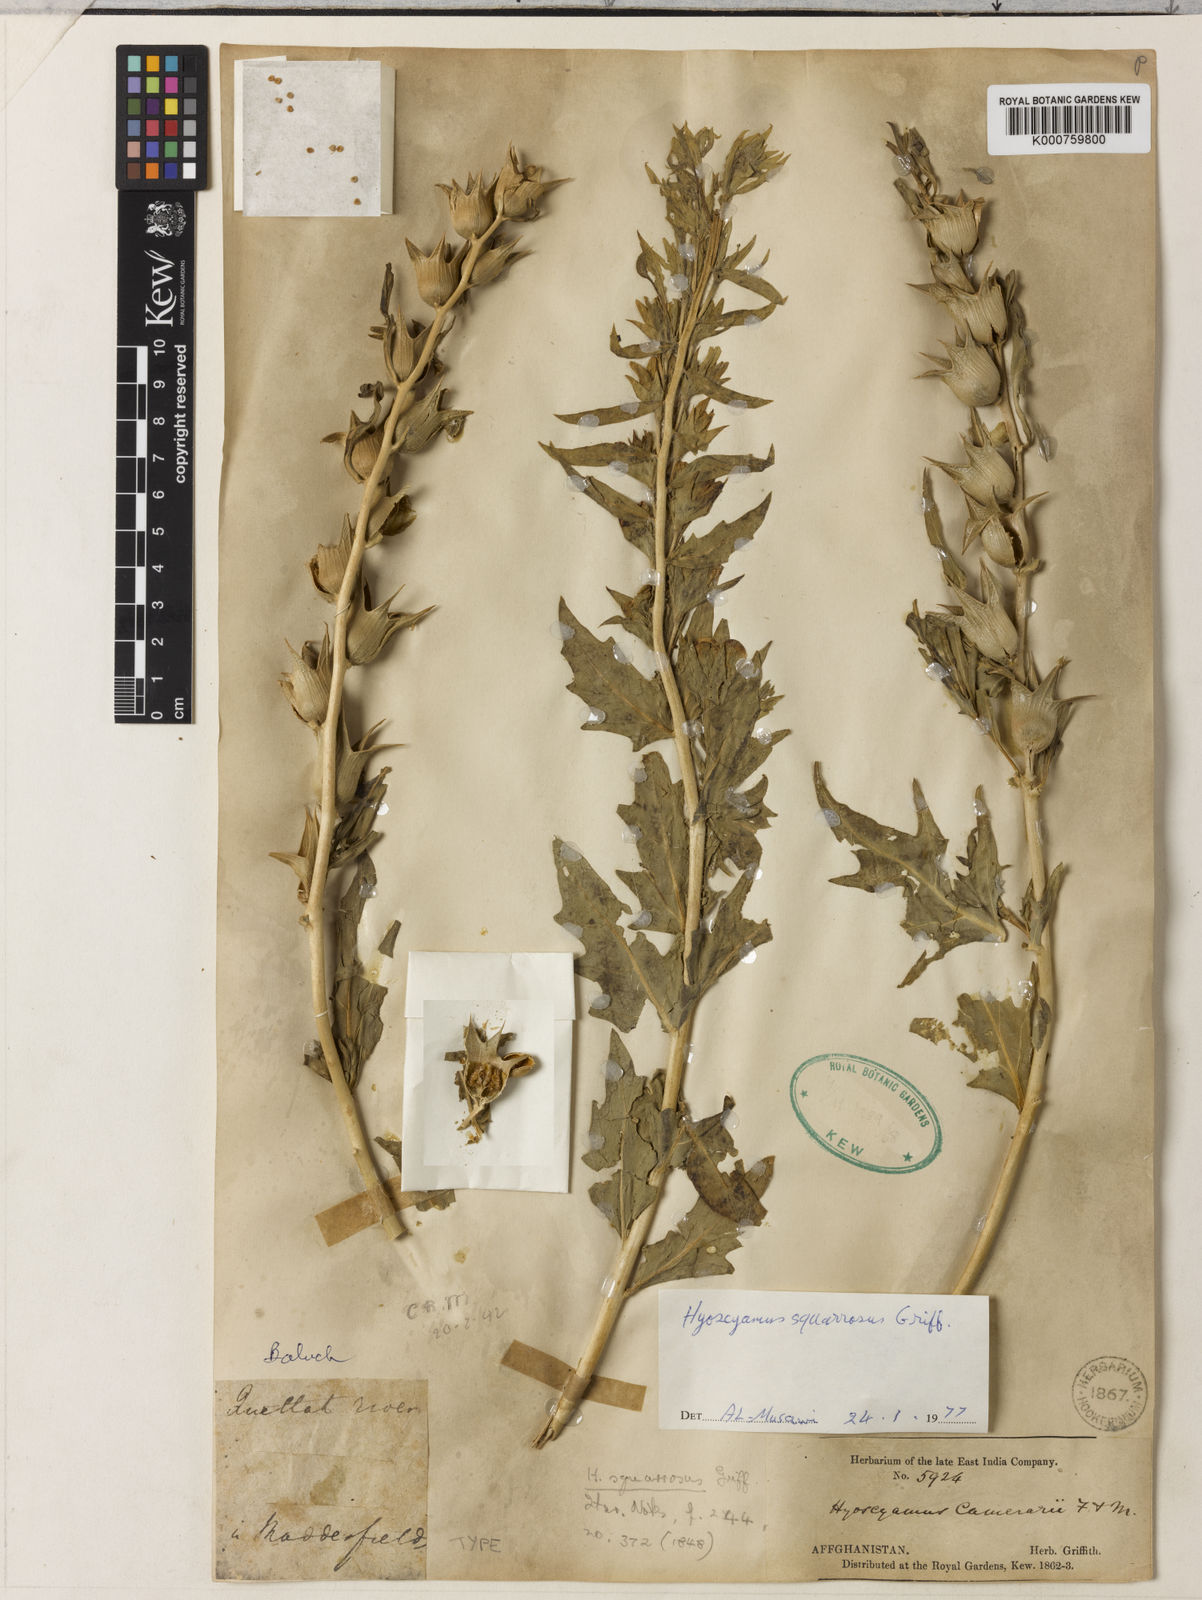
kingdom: Plantae
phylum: Tracheophyta
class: Magnoliopsida
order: Solanales
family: Solanaceae
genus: Hyoscyamus
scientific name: Hyoscyamus squarrosus
